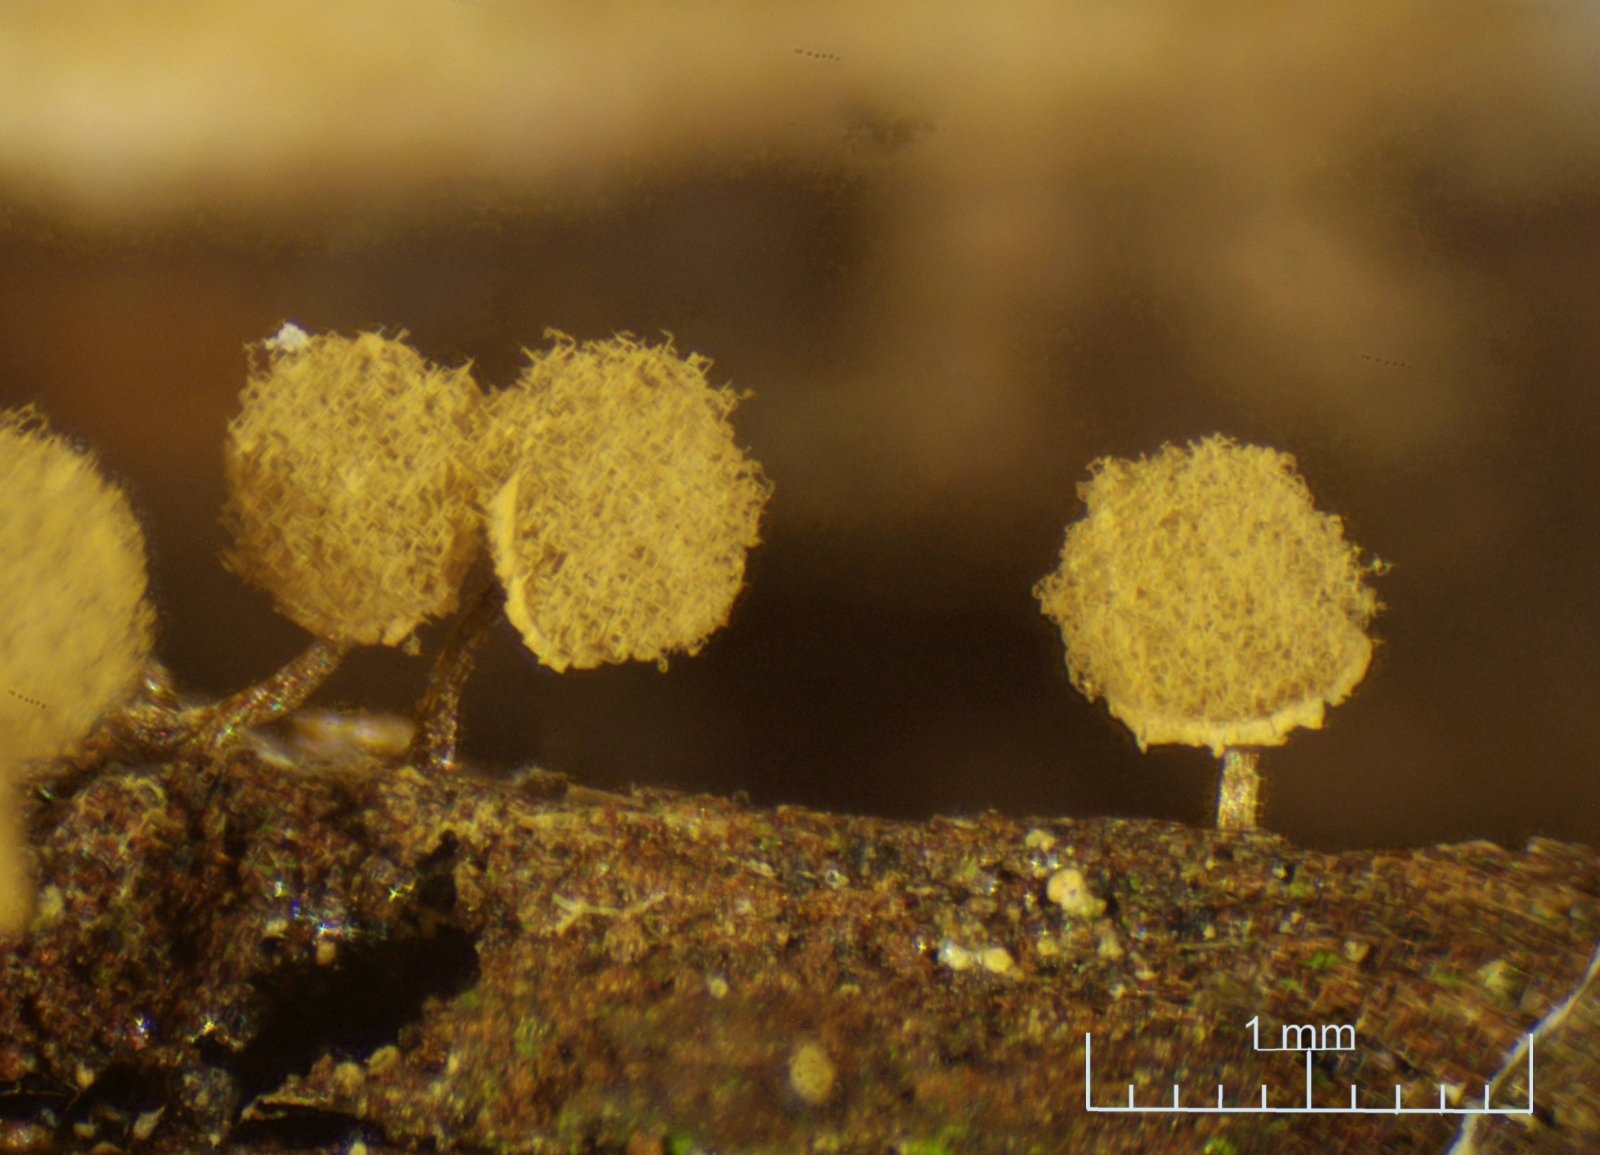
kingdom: Protozoa
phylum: Mycetozoa
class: Myxomycetes
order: Trichiales
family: Arcyriaceae
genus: Arcyria
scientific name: Arcyria pomiformis
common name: Golden apple slime mold
